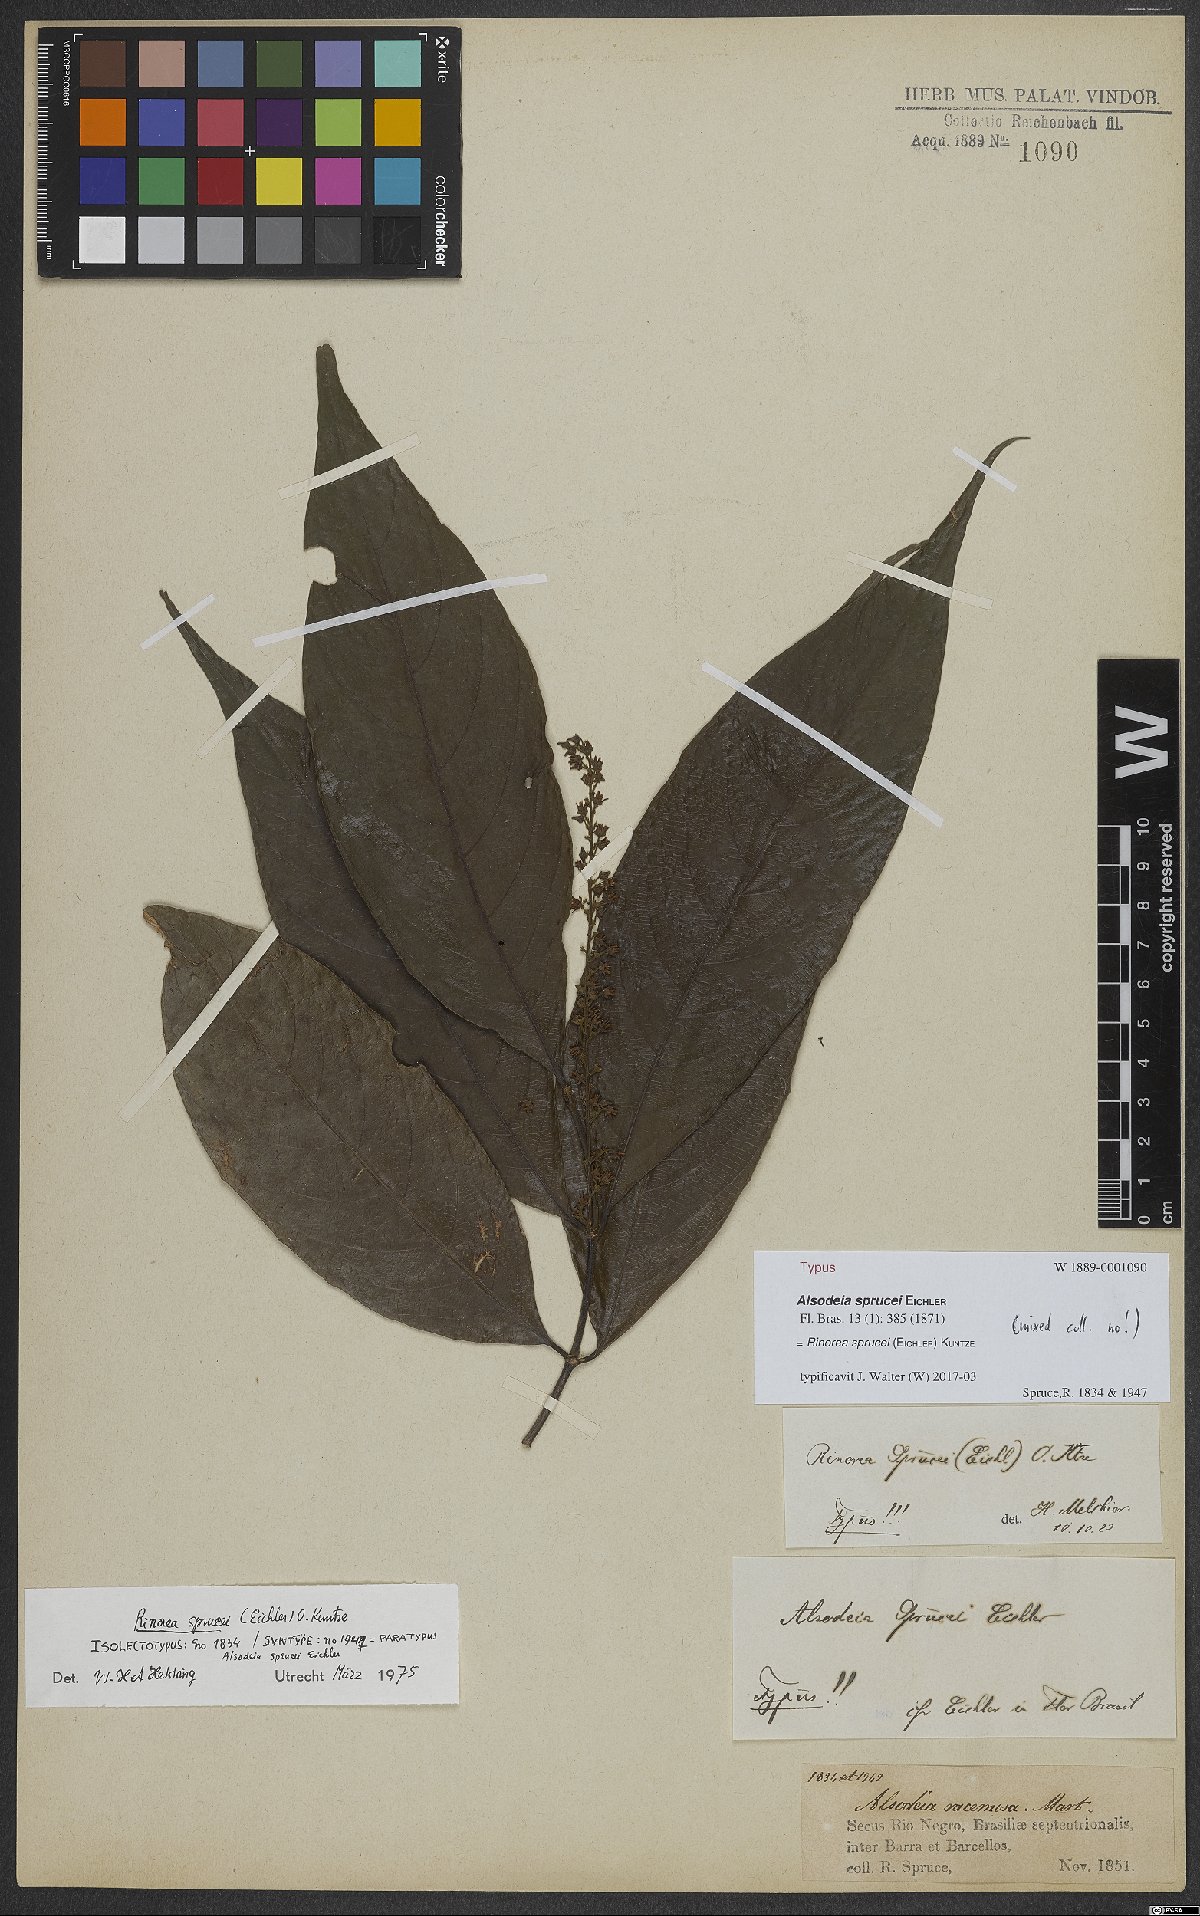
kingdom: Plantae
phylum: Tracheophyta
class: Magnoliopsida
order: Malpighiales
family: Violaceae
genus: Rinorea
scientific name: Rinorea sprucei
